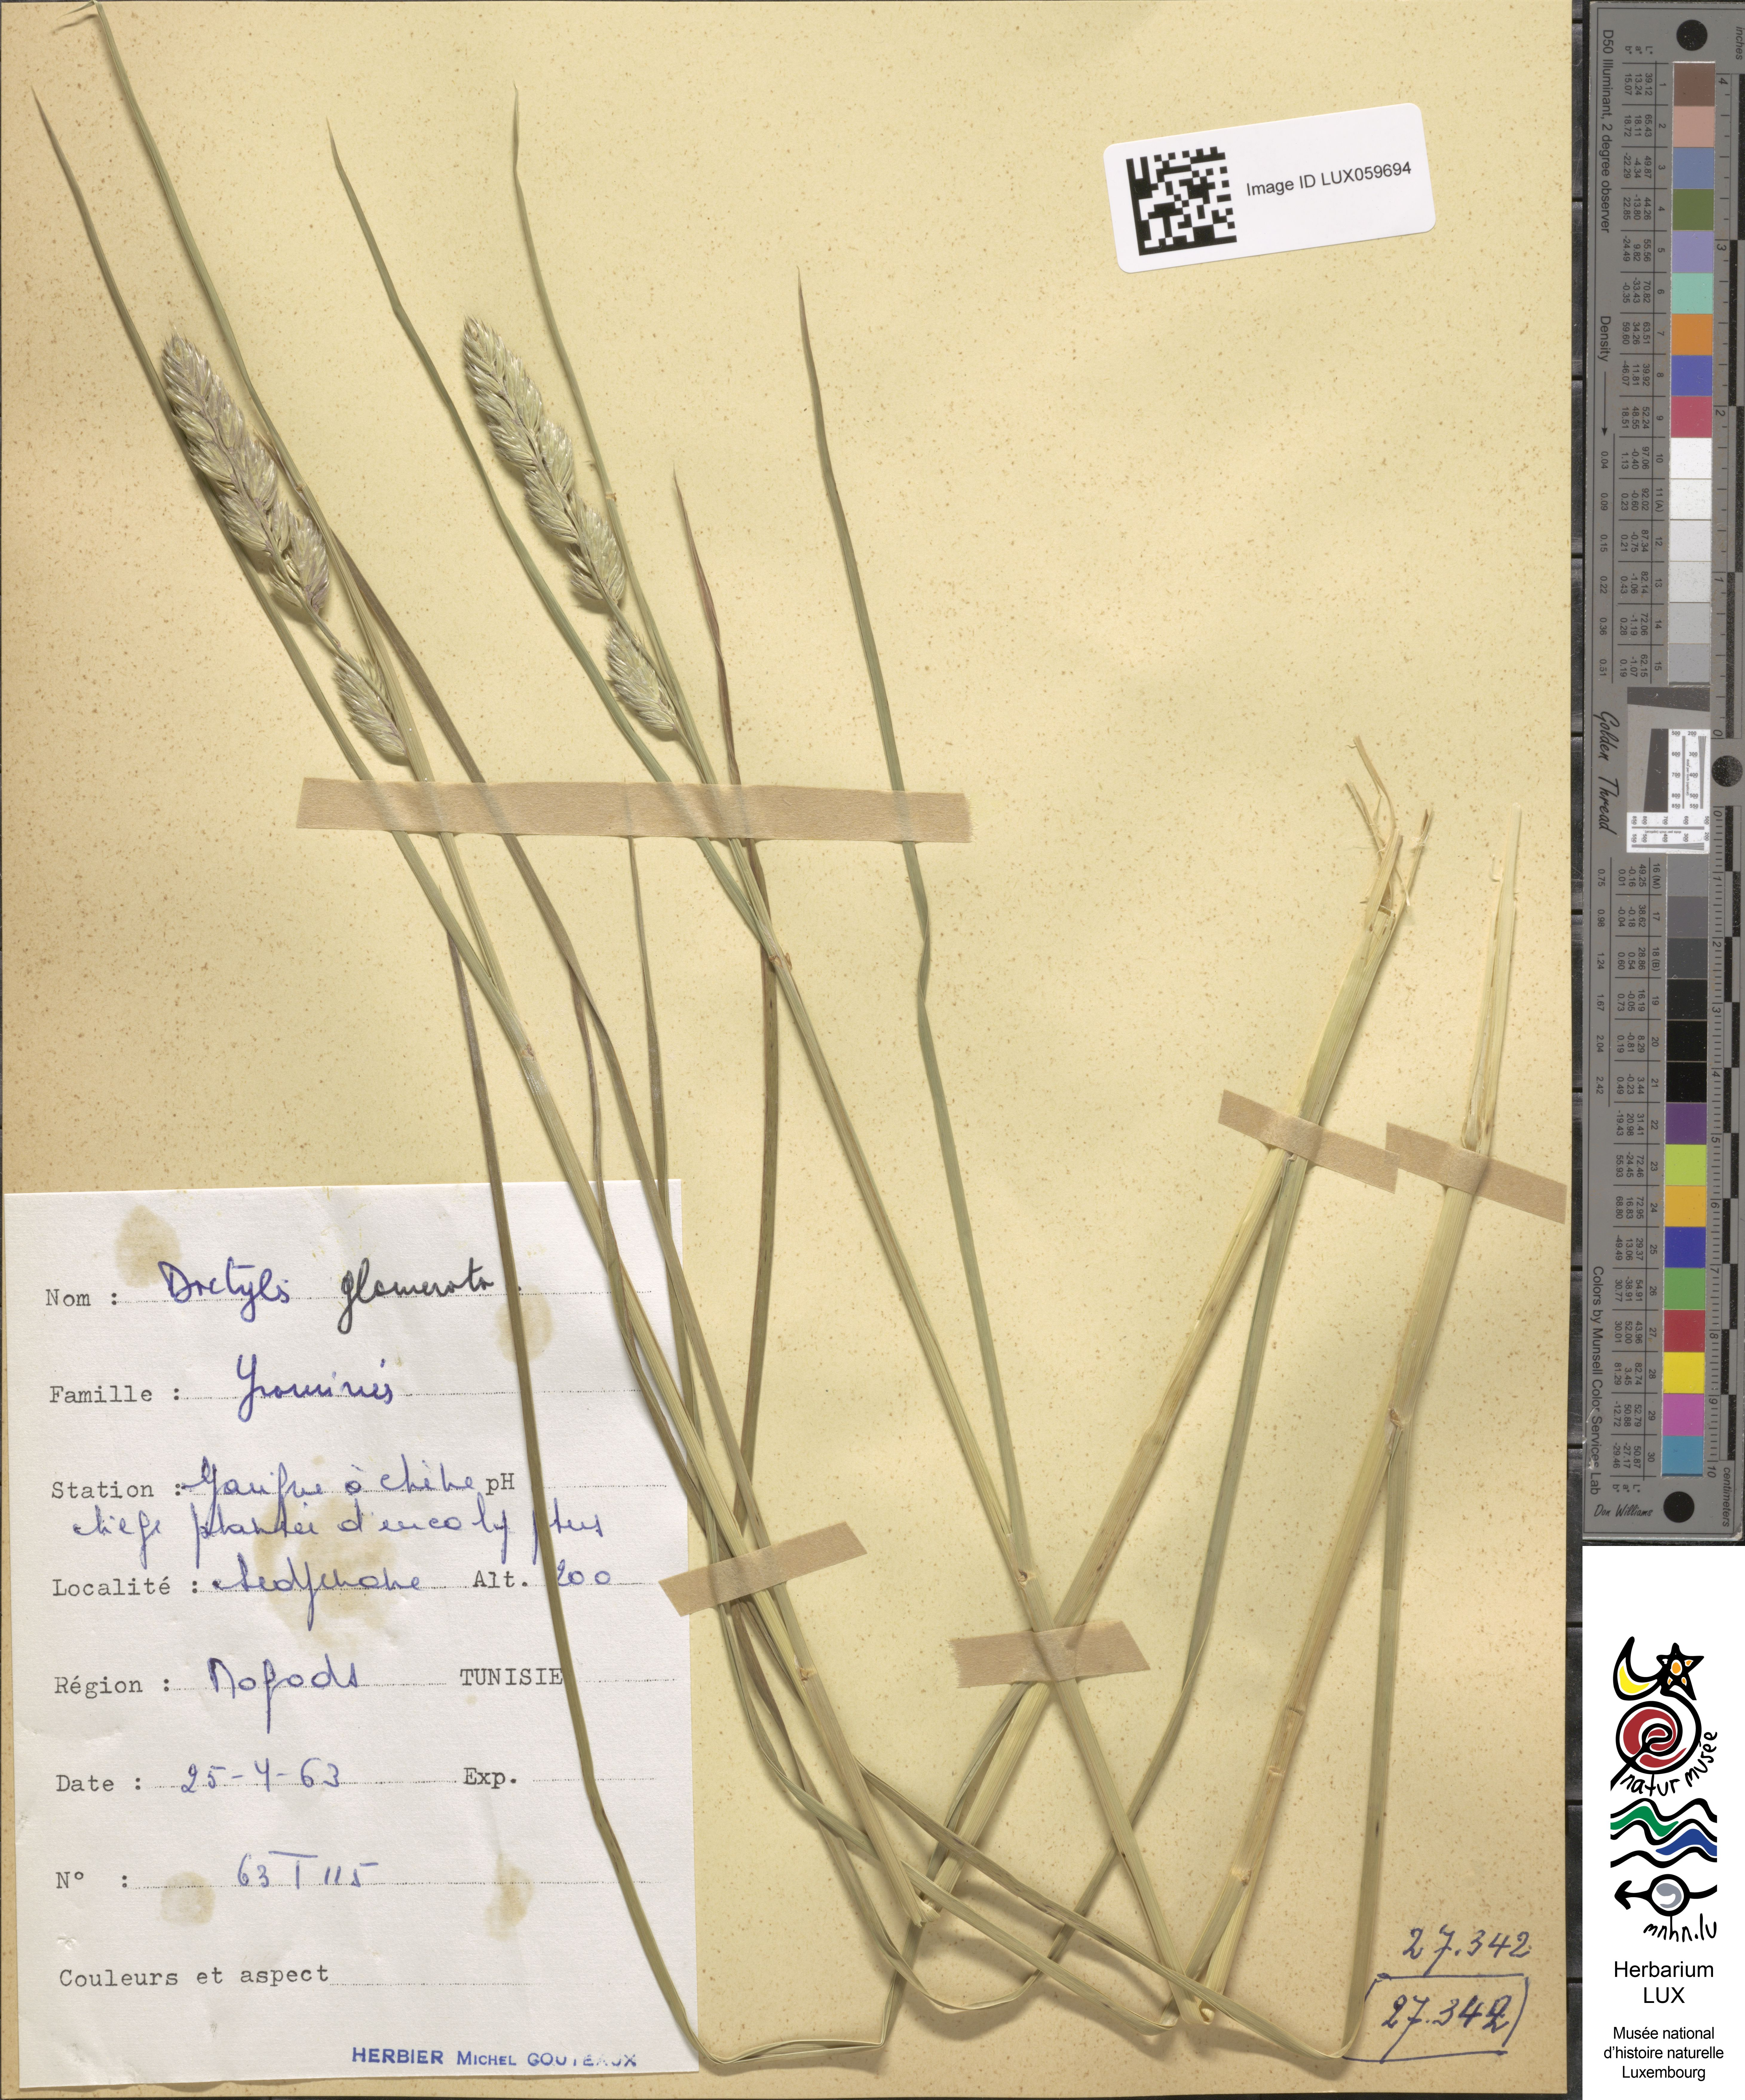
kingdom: Plantae
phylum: Tracheophyta
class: Liliopsida
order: Poales
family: Poaceae
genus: Dactylis
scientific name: Dactylis glomerata
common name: Orchardgrass
